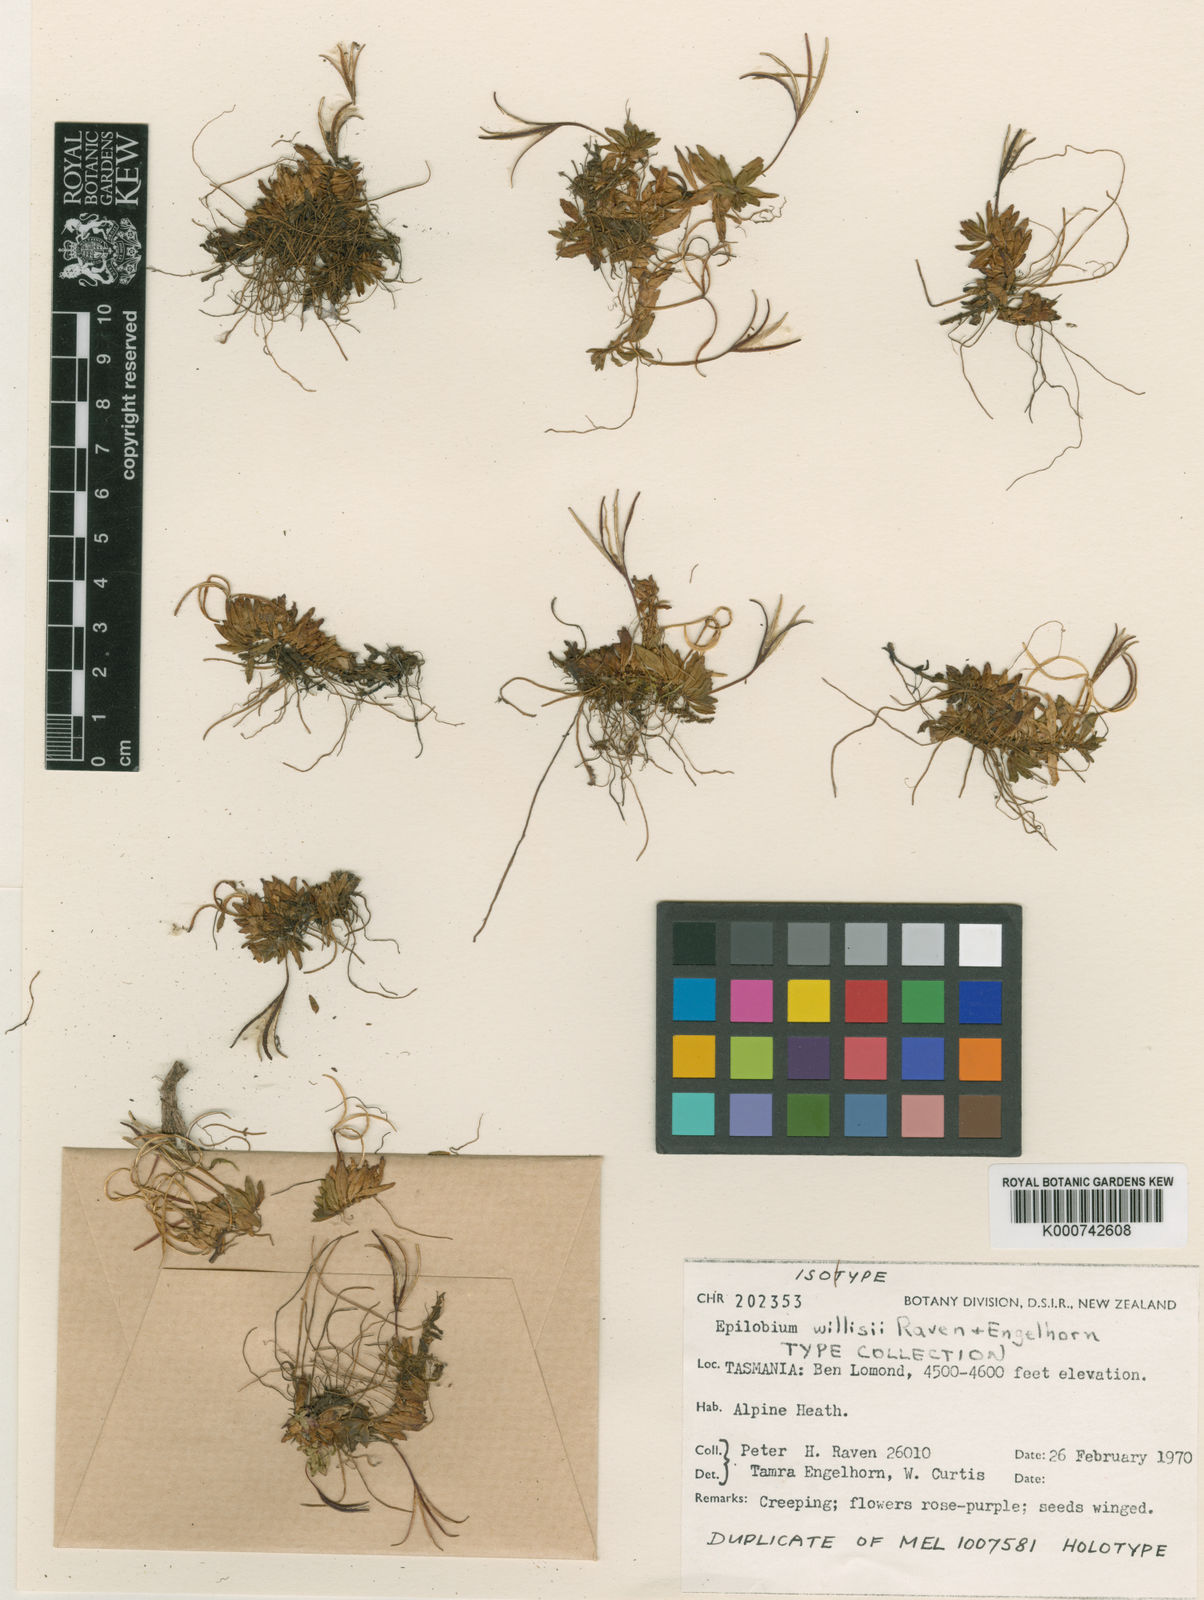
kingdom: Plantae
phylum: Tracheophyta
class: Magnoliopsida
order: Myrtales
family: Onagraceae
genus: Epilobium
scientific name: Epilobium willisii
